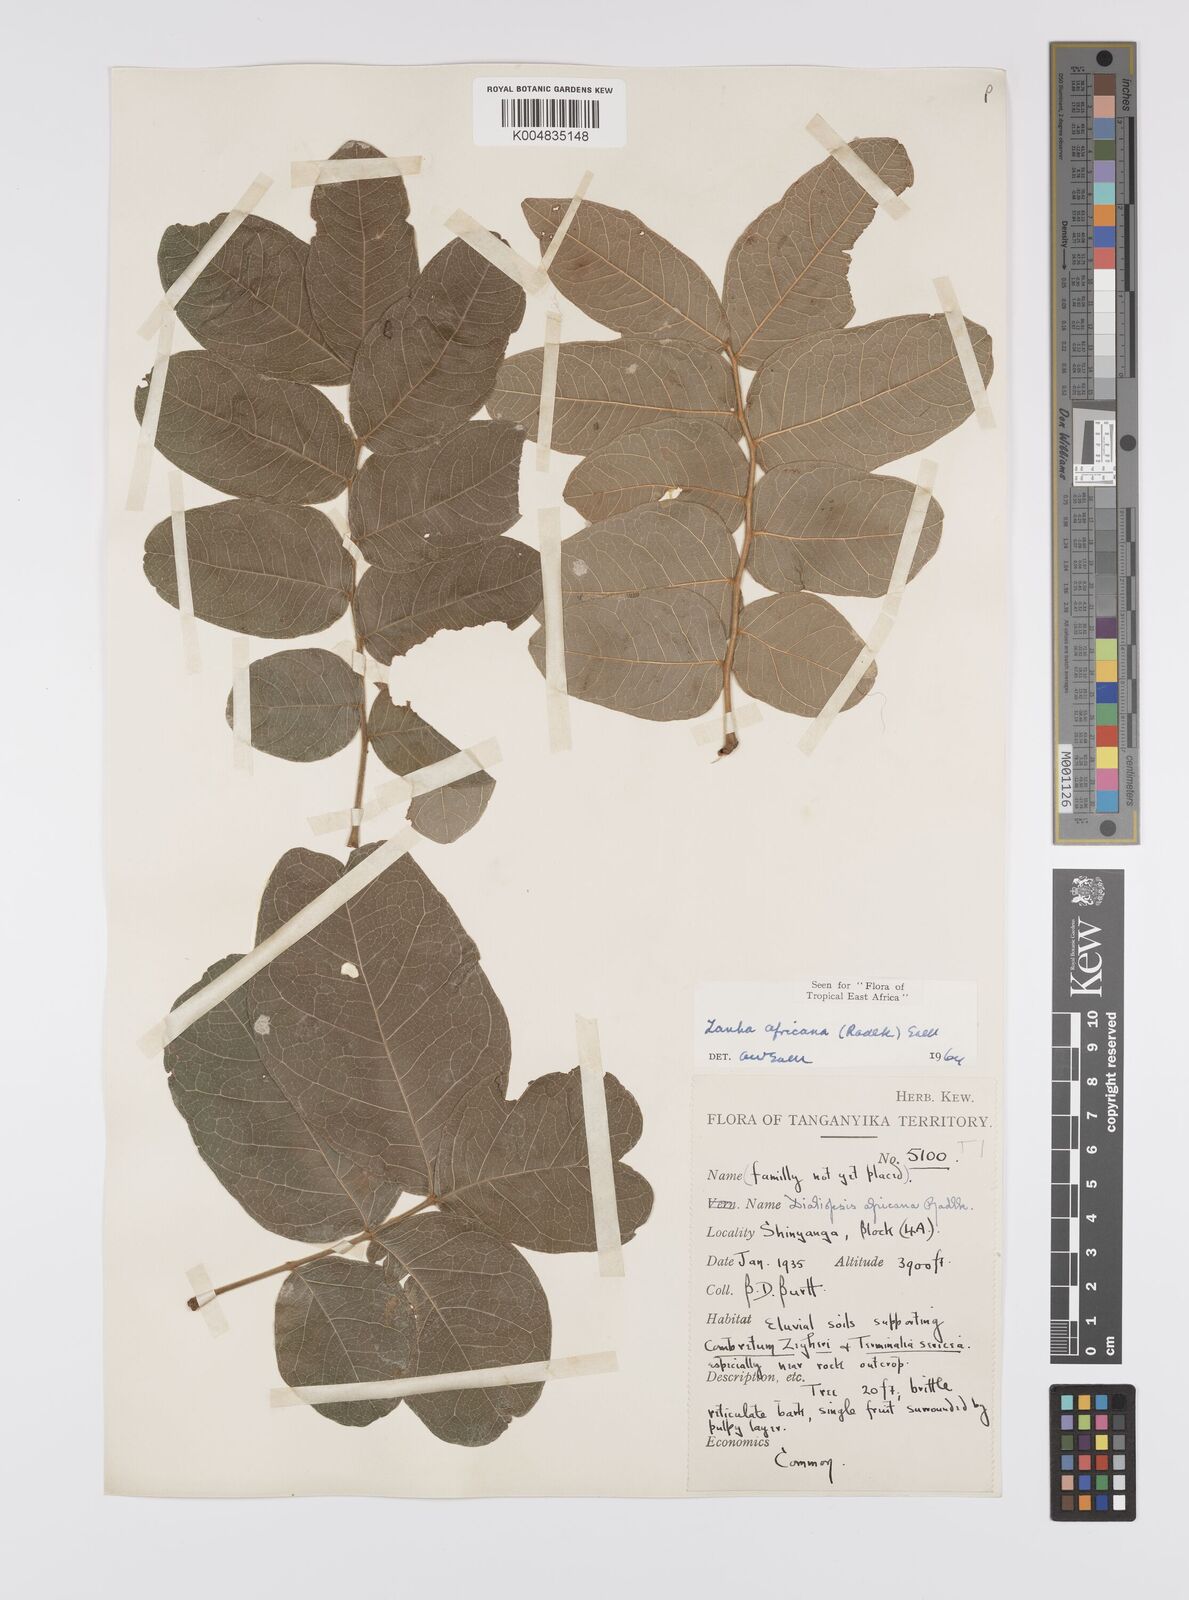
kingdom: Plantae
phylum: Tracheophyta
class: Magnoliopsida
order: Sapindales
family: Sapindaceae
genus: Zanha
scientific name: Zanha africana
